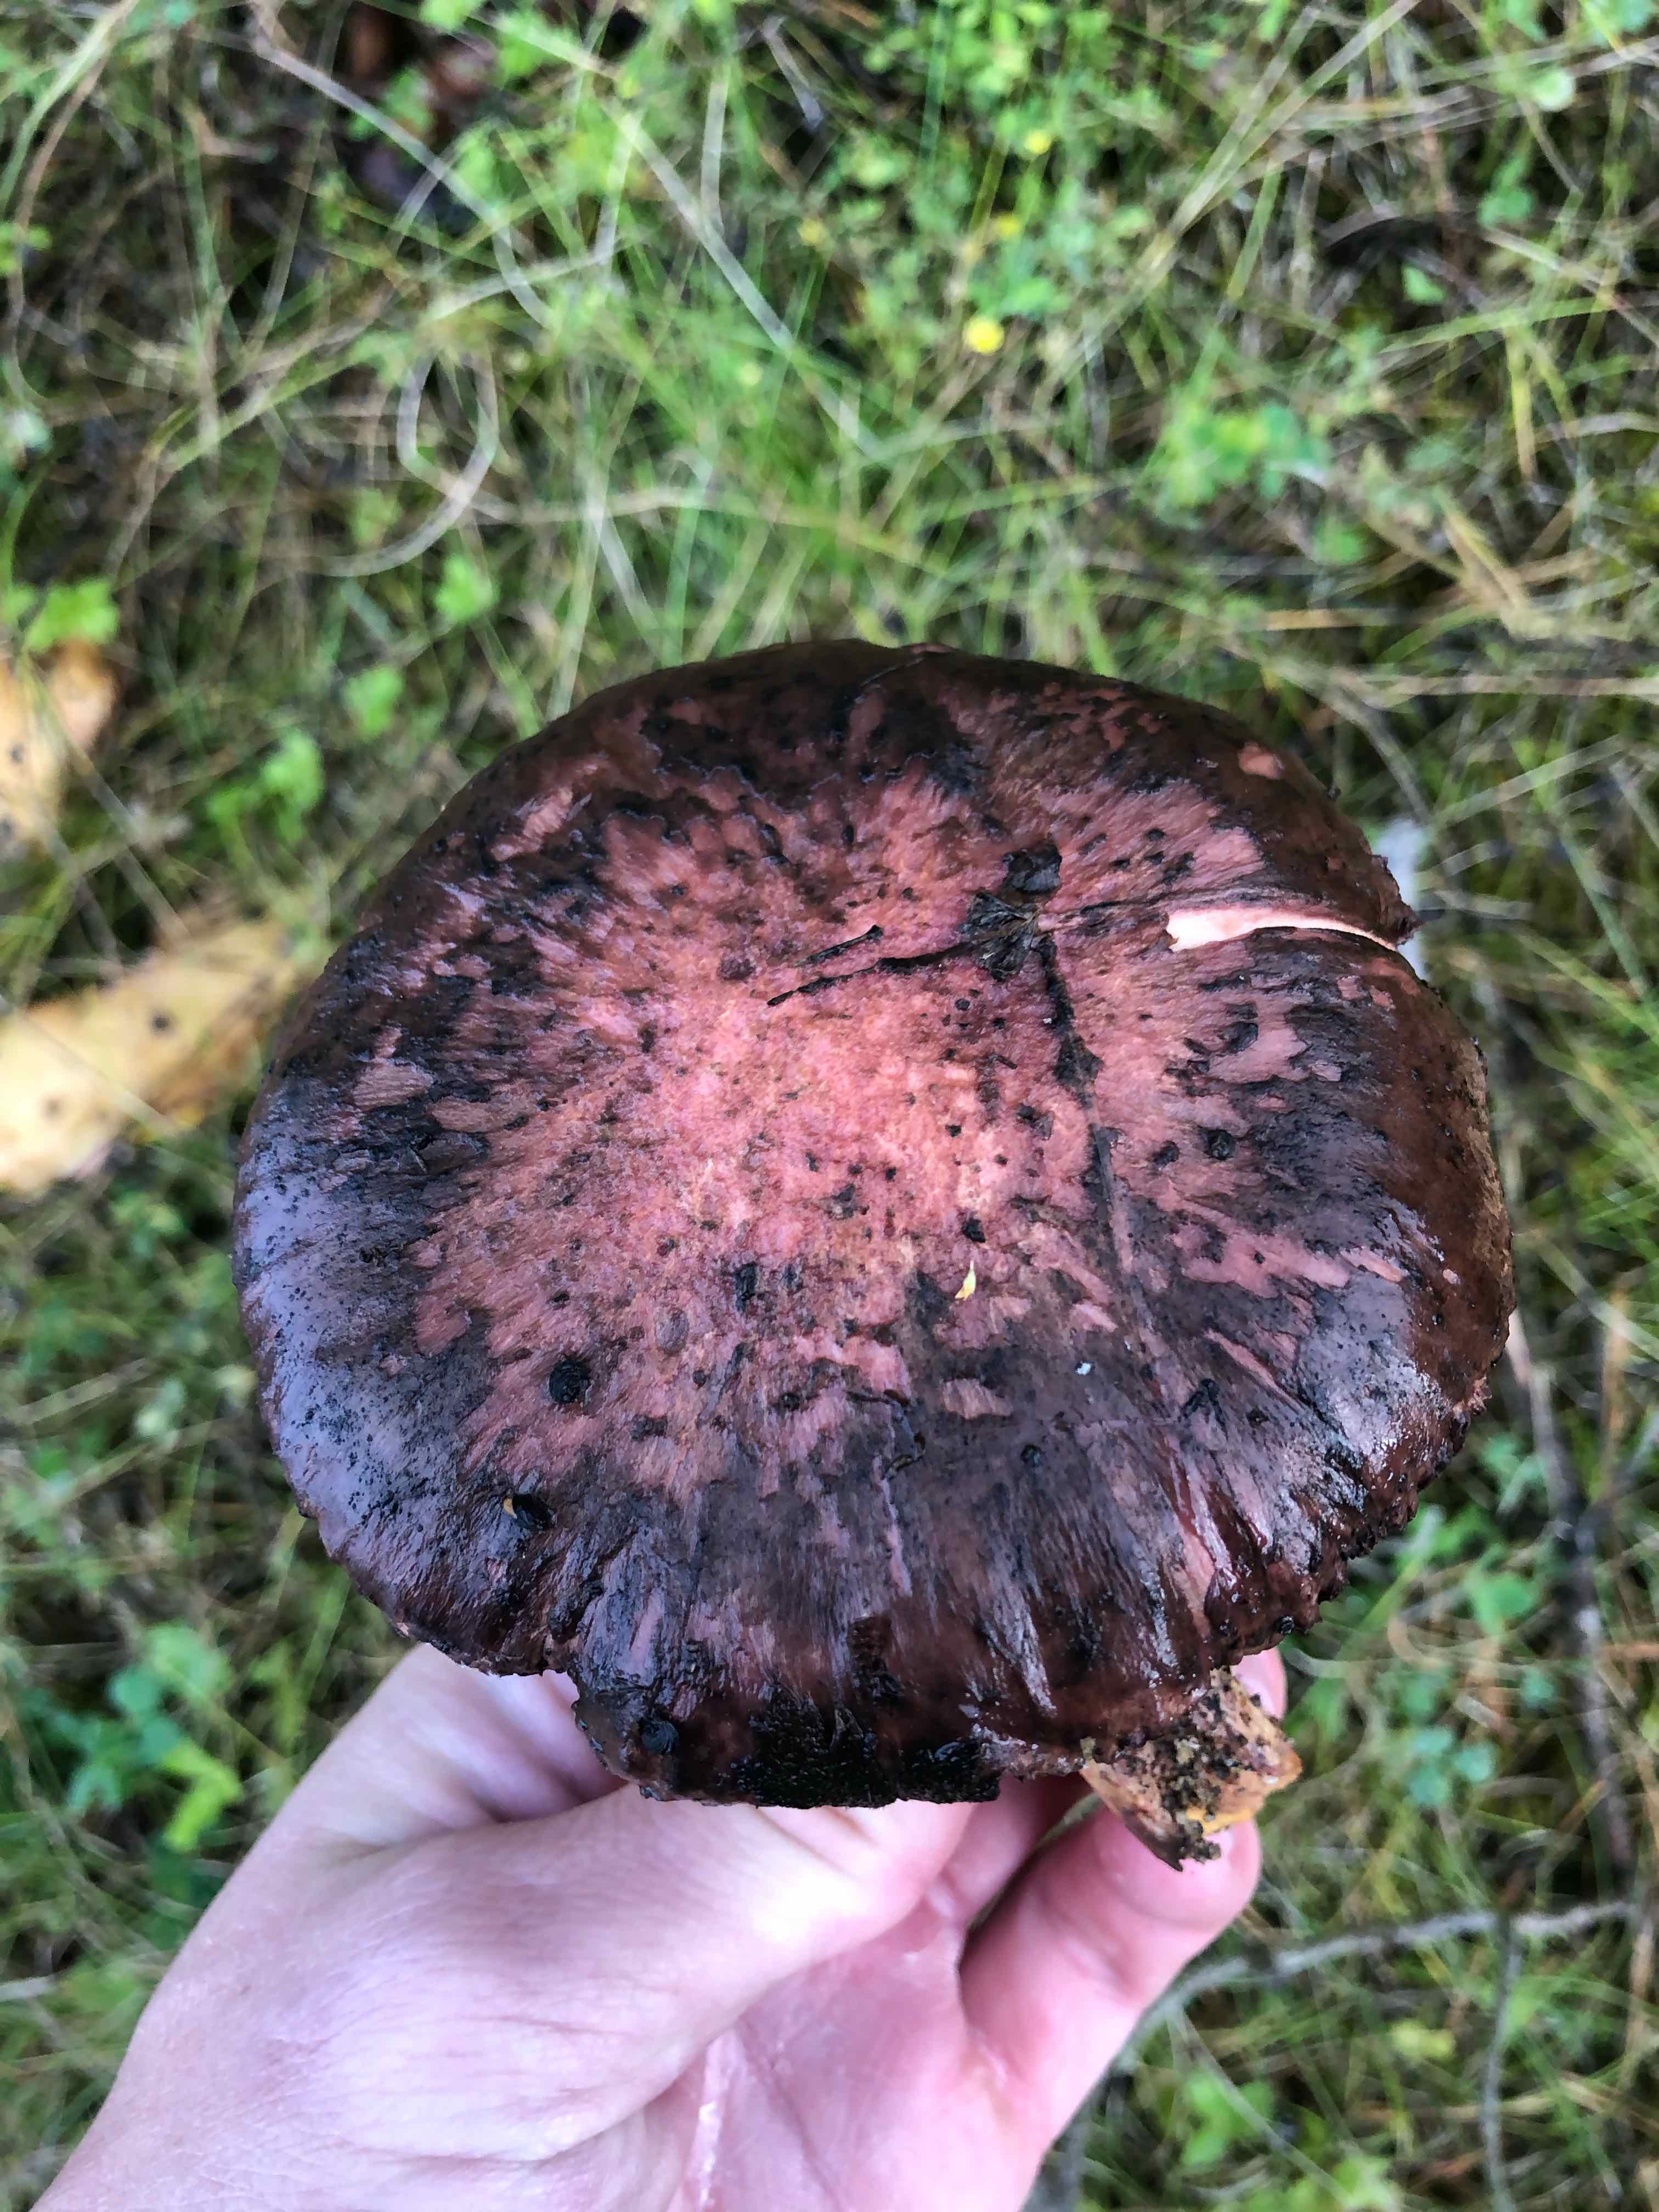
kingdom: Fungi
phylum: Basidiomycota
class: Agaricomycetes
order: Boletales
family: Gomphidiaceae
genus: Gomphidius
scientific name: Gomphidius glutinosus
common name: grå slimslør
